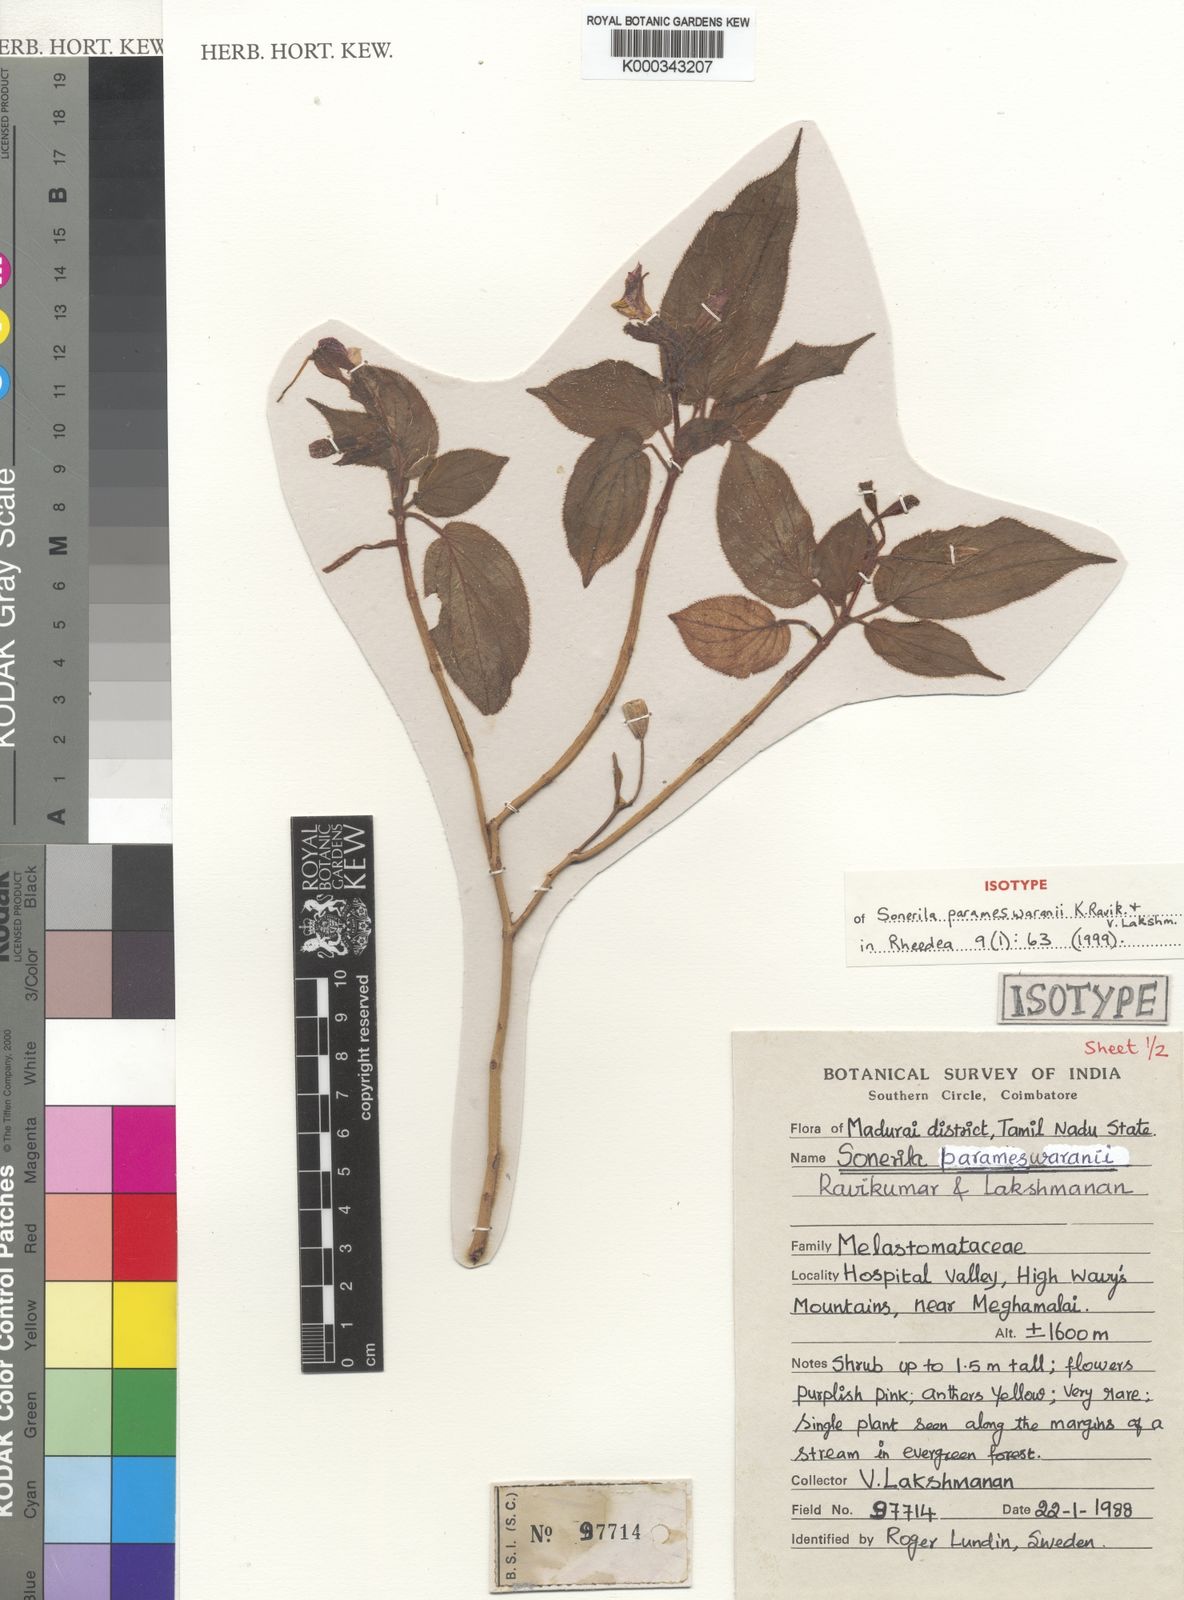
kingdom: Plantae
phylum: Tracheophyta
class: Magnoliopsida
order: Myrtales
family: Melastomataceae
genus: Sonerila
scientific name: Sonerila parameswaranii
